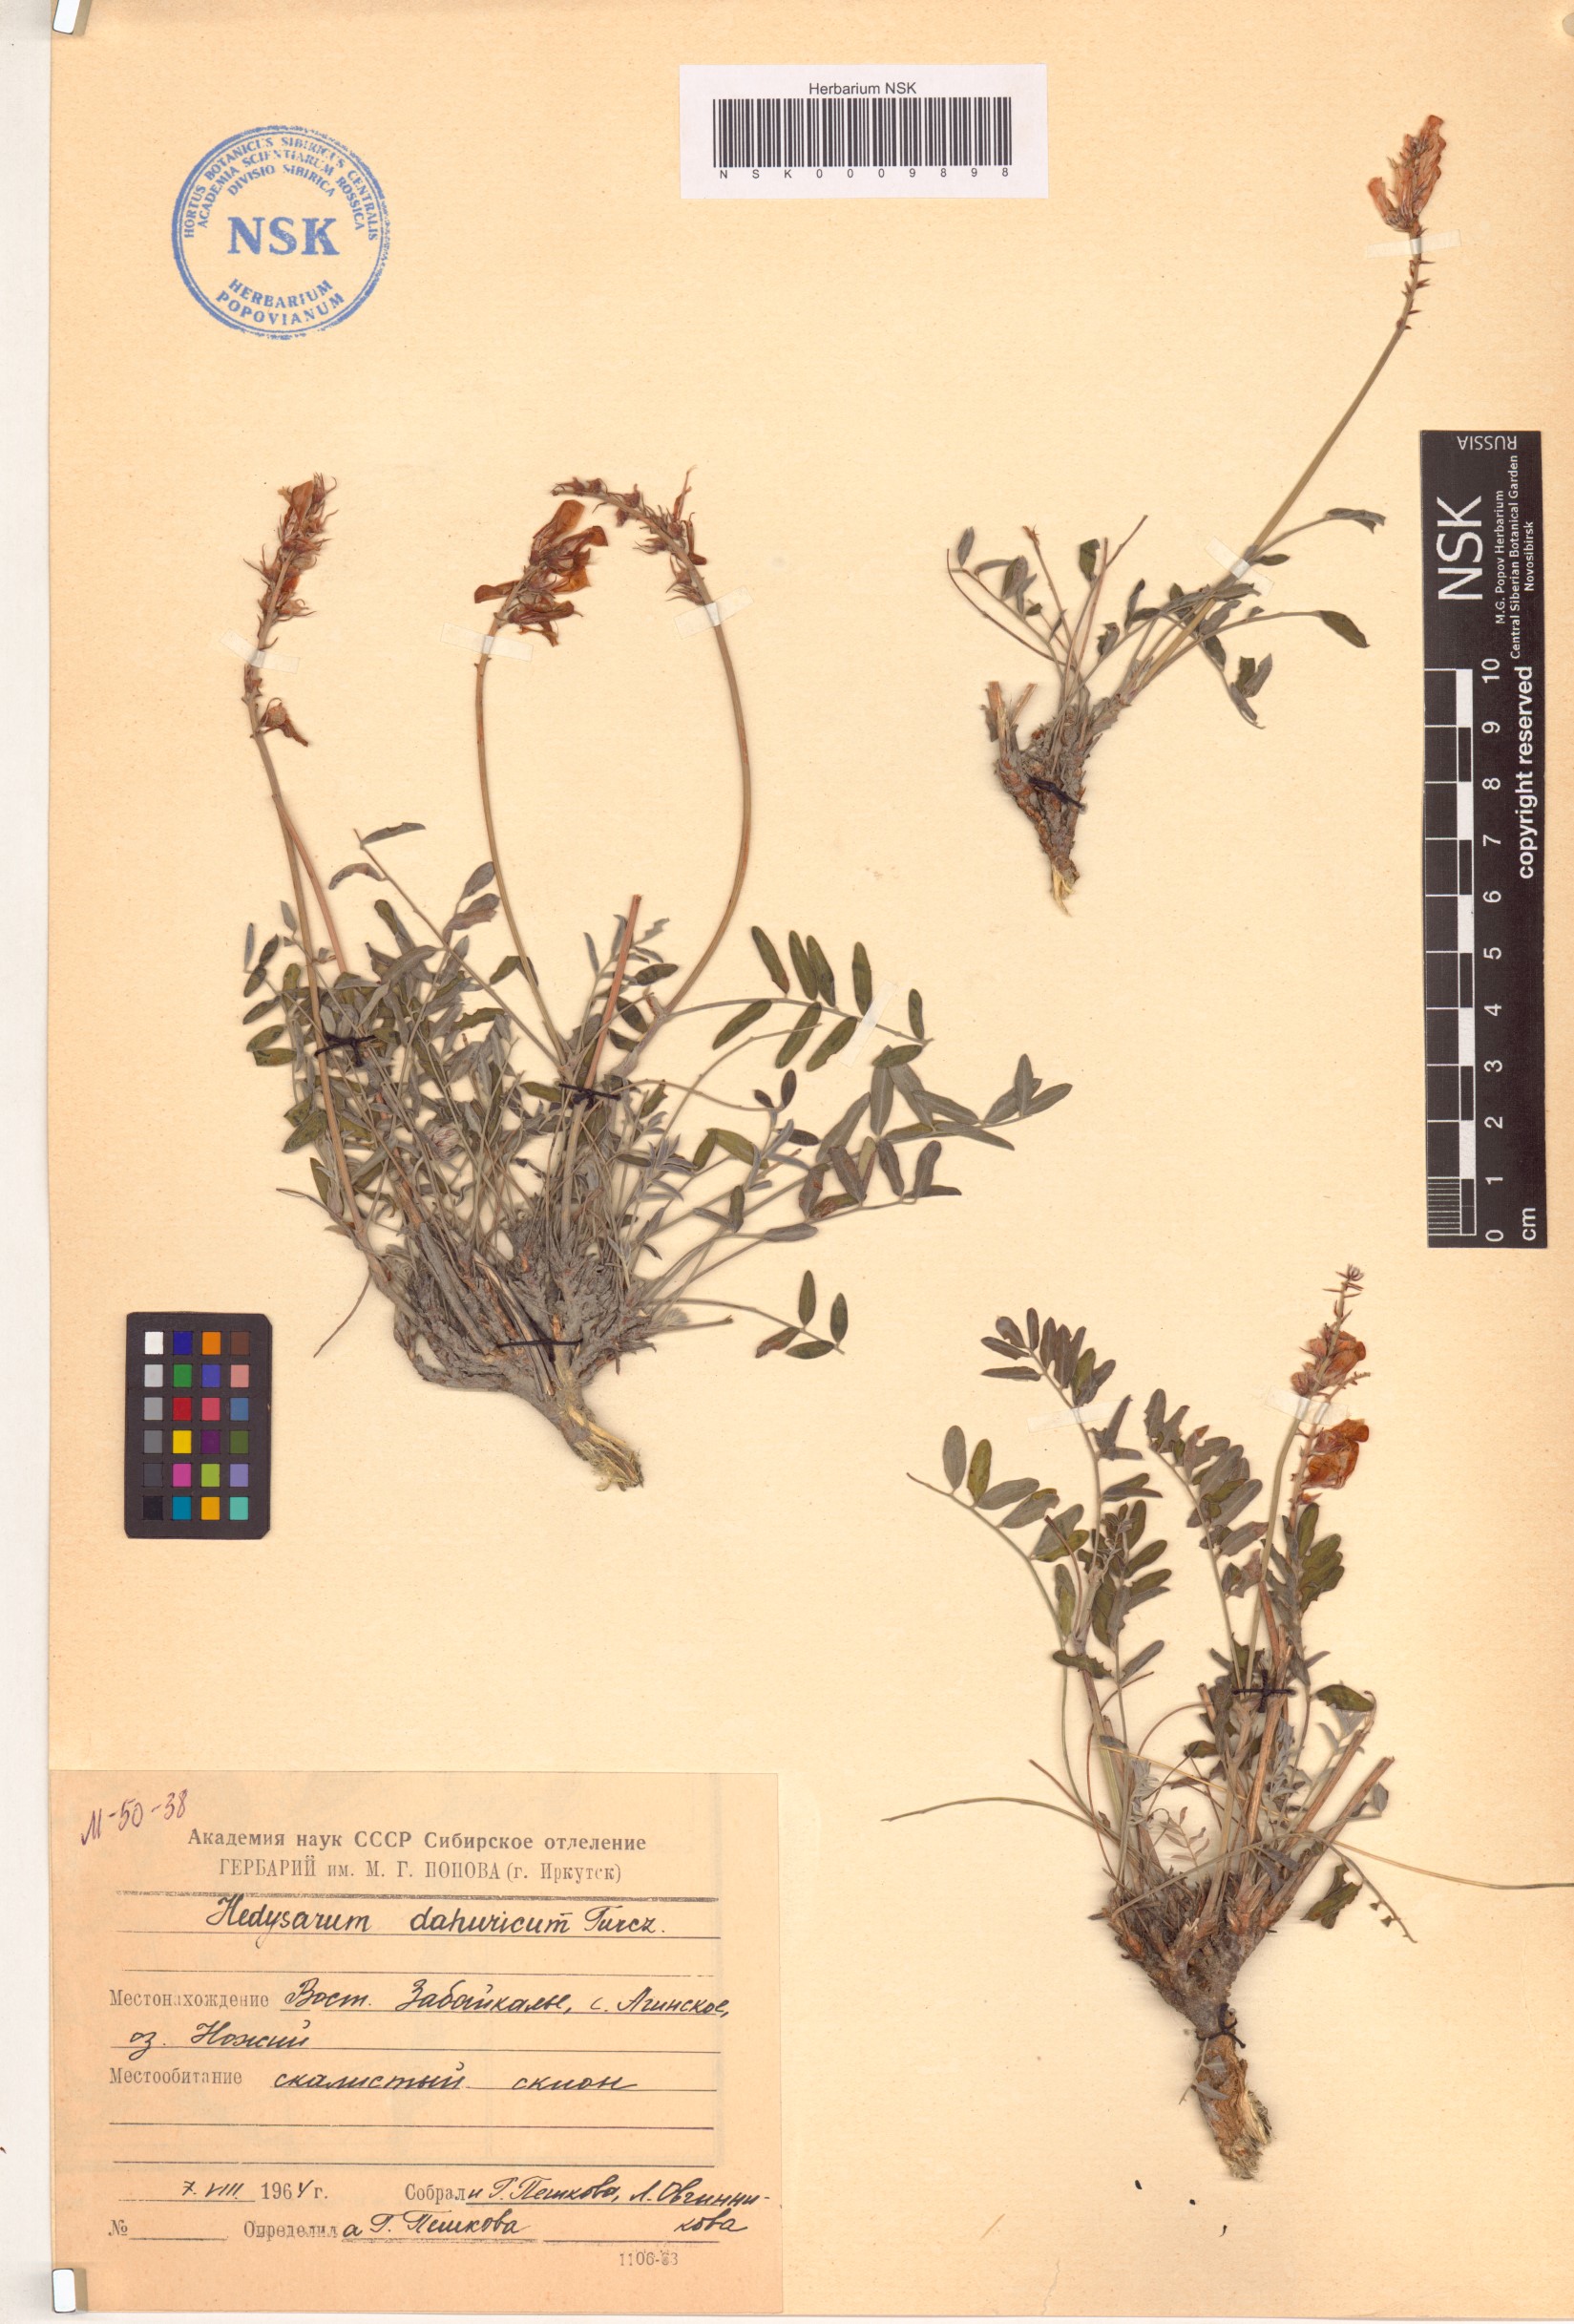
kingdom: Plantae
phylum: Tracheophyta
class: Magnoliopsida
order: Fabales
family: Fabaceae
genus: Hedysarum
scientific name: Hedysarum dahuricum
